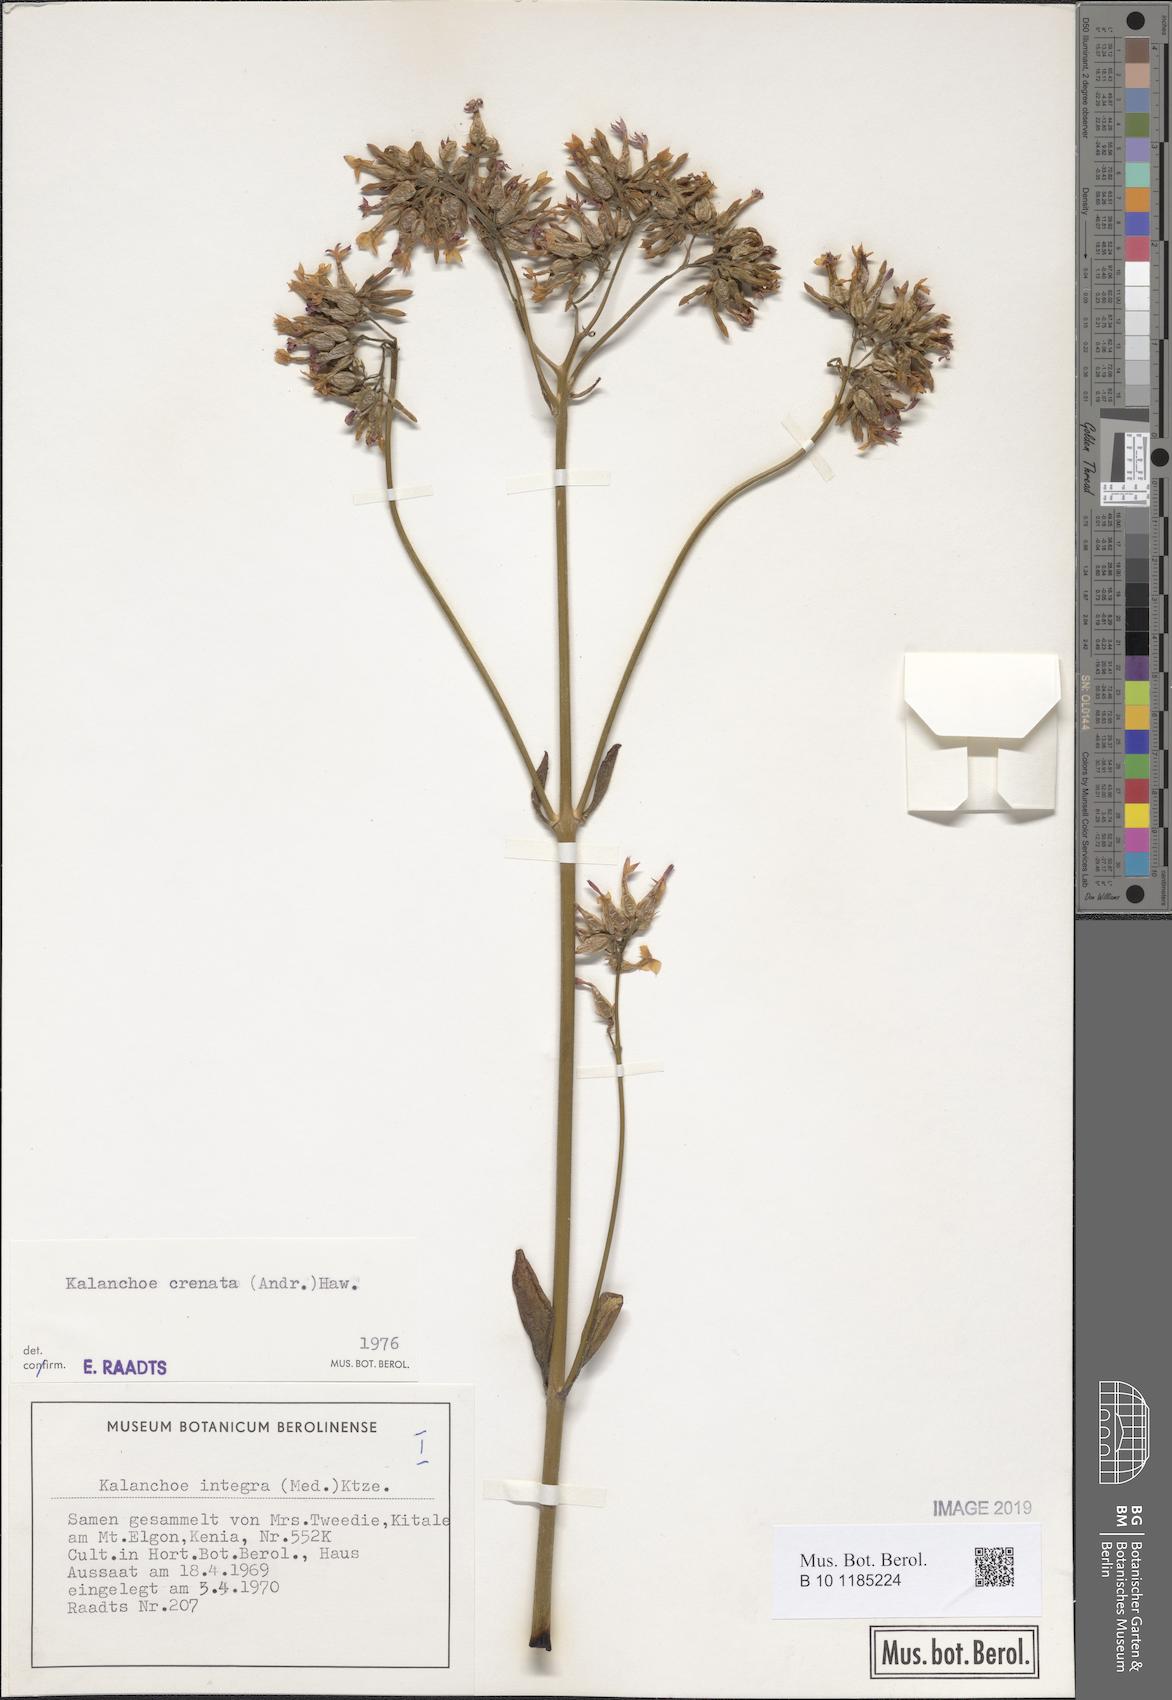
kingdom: Plantae
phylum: Tracheophyta
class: Magnoliopsida
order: Saxifragales
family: Crassulaceae
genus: Kalanchoe
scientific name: Kalanchoe crenata
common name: Neverdie
